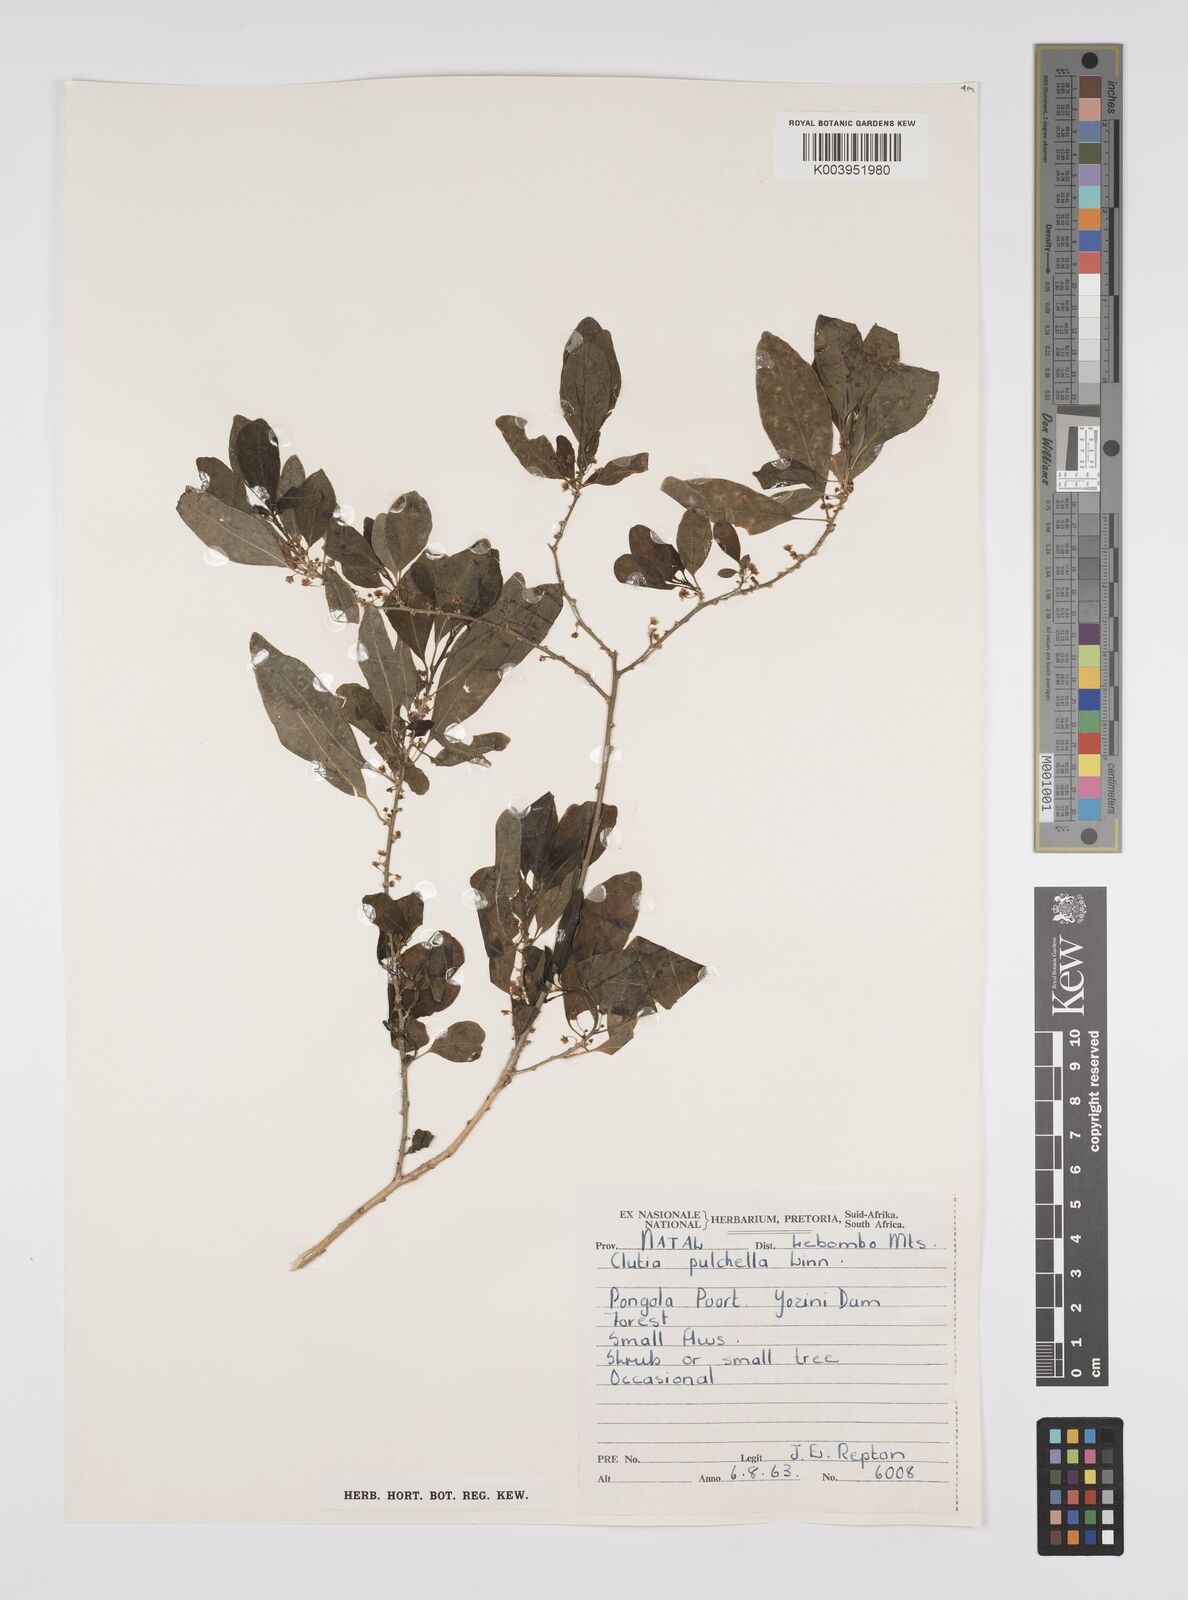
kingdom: Plantae
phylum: Tracheophyta
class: Magnoliopsida
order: Malpighiales
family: Peraceae
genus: Clutia
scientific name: Clutia pulchella
